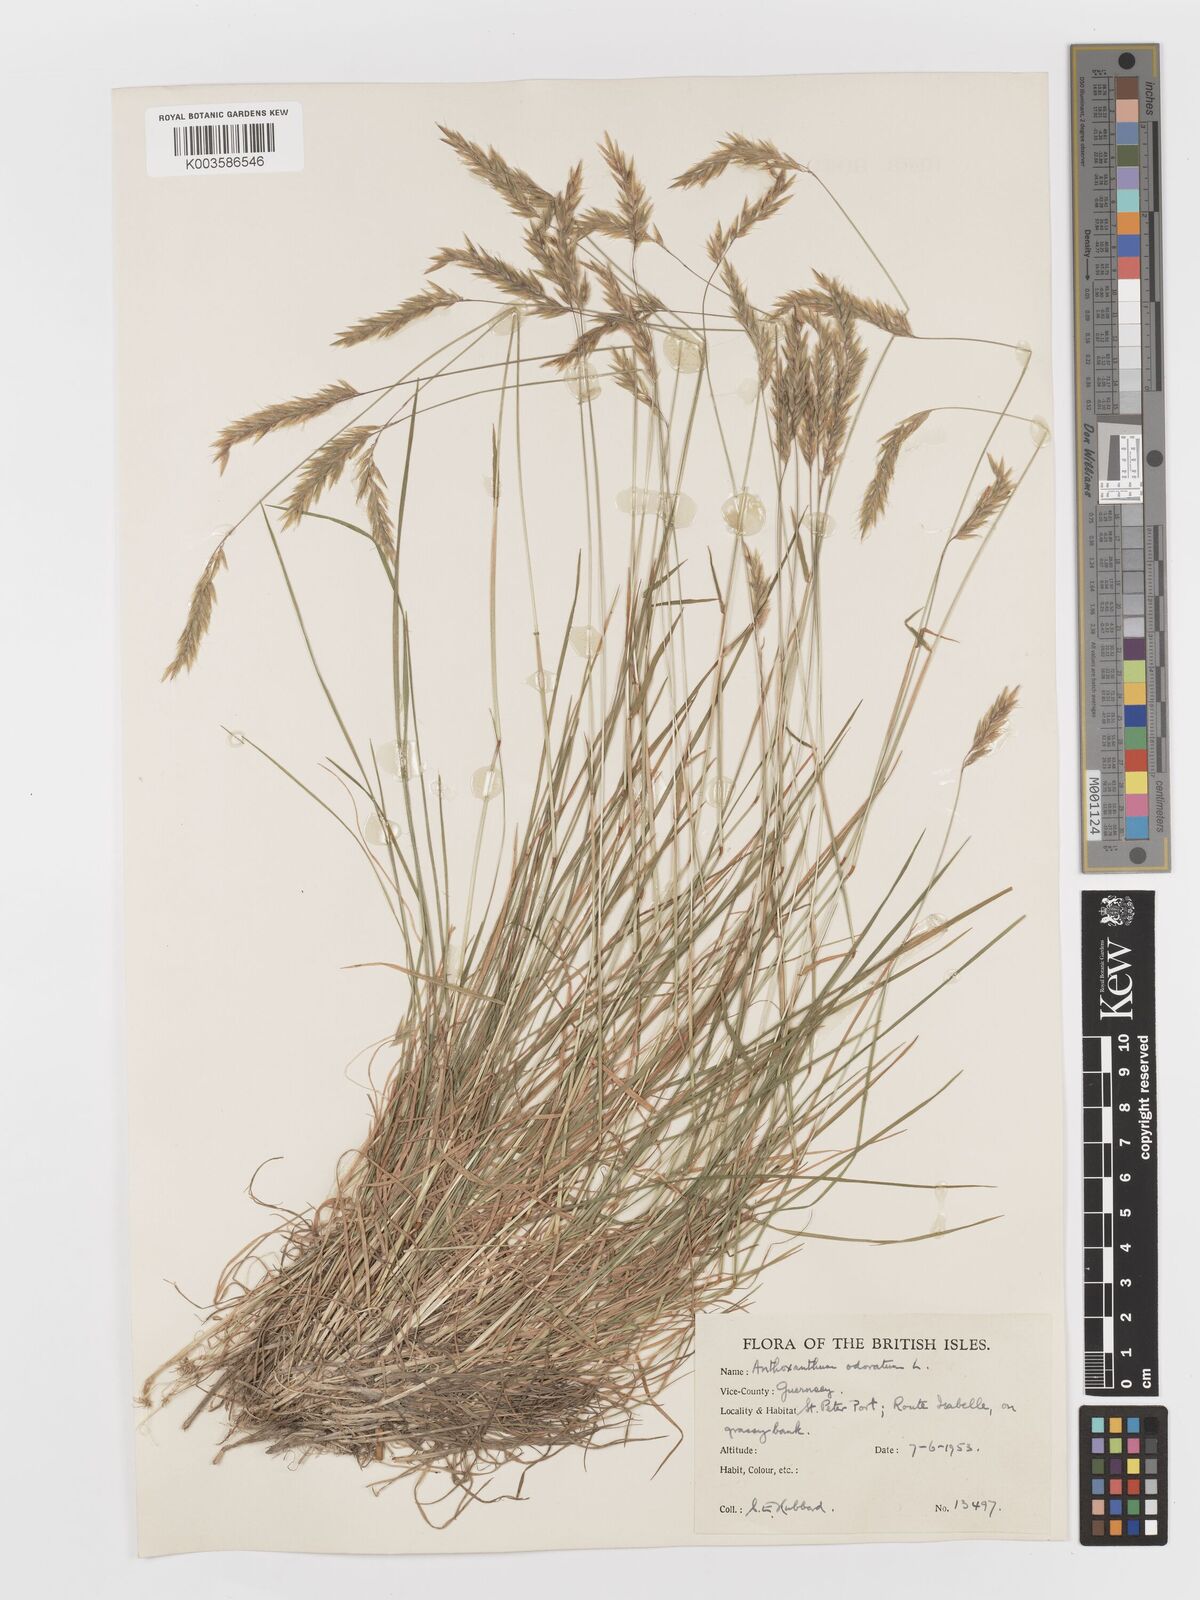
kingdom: Plantae
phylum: Tracheophyta
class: Liliopsida
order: Poales
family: Poaceae
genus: Anthoxanthum
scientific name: Anthoxanthum odoratum
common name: Sweet vernalgrass
